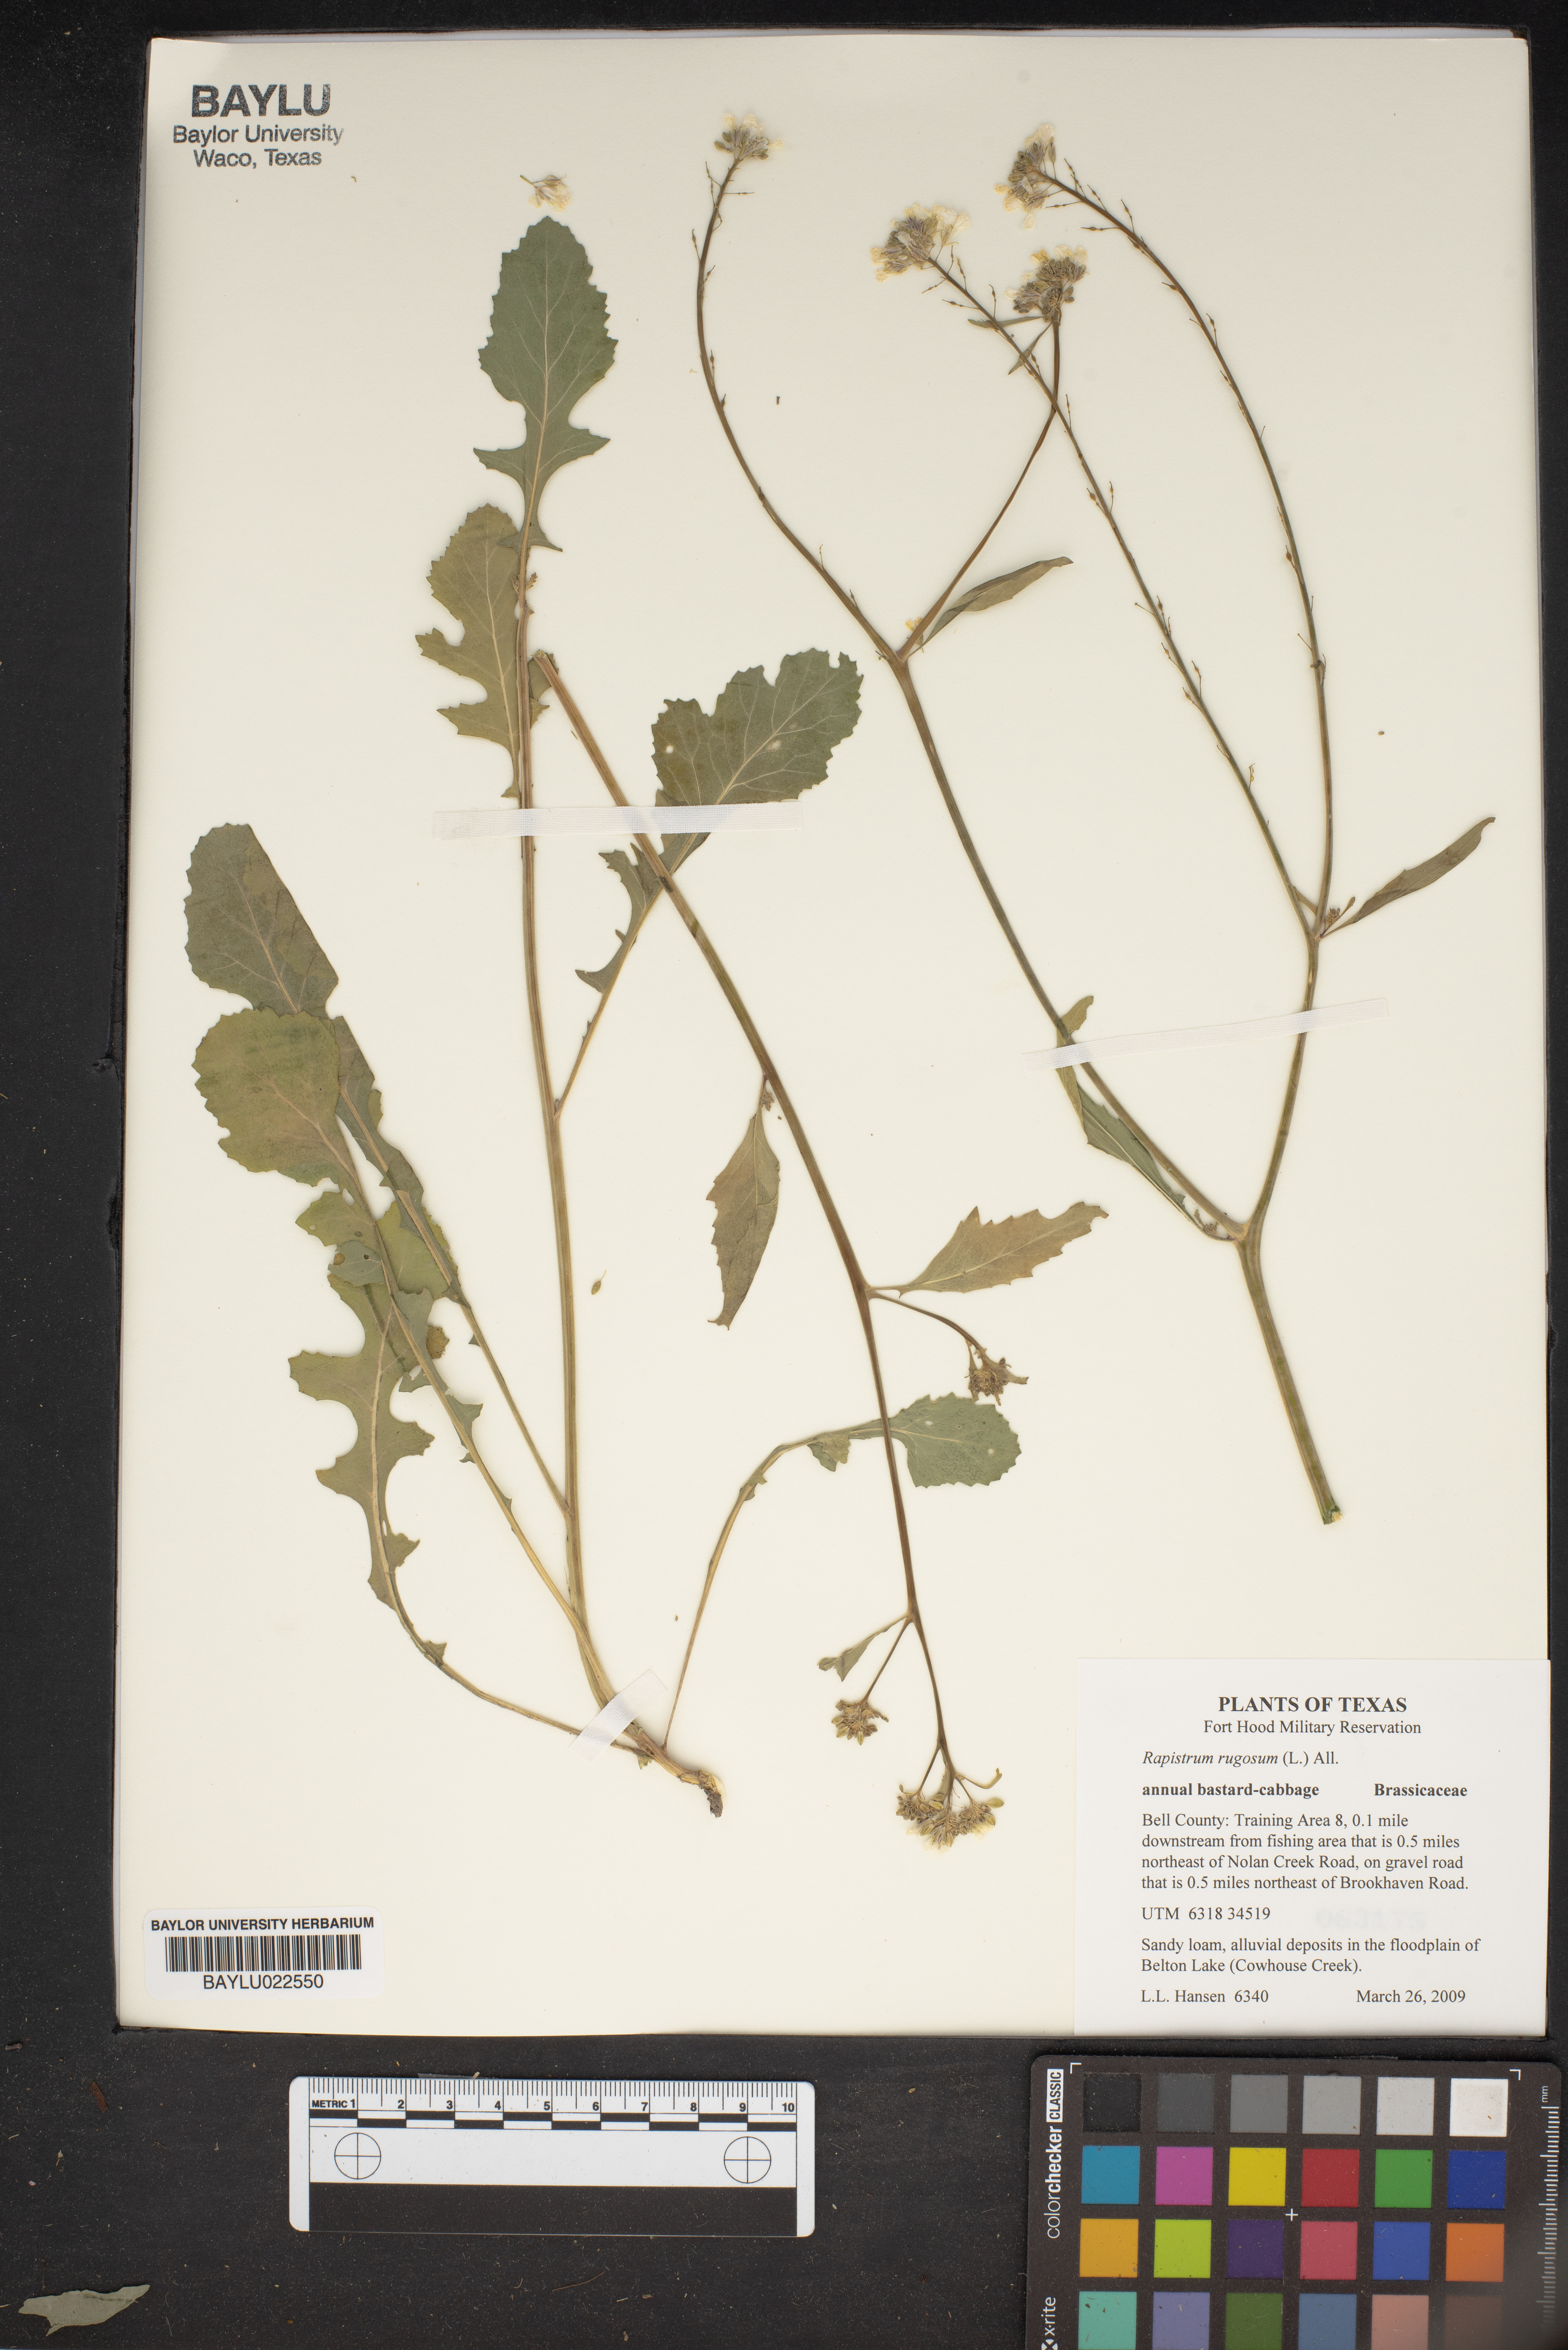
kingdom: Plantae
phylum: Tracheophyta
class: Magnoliopsida
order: Brassicales
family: Brassicaceae
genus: Rapistrum
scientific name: Rapistrum rugosum
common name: Annual bastardcabbage
